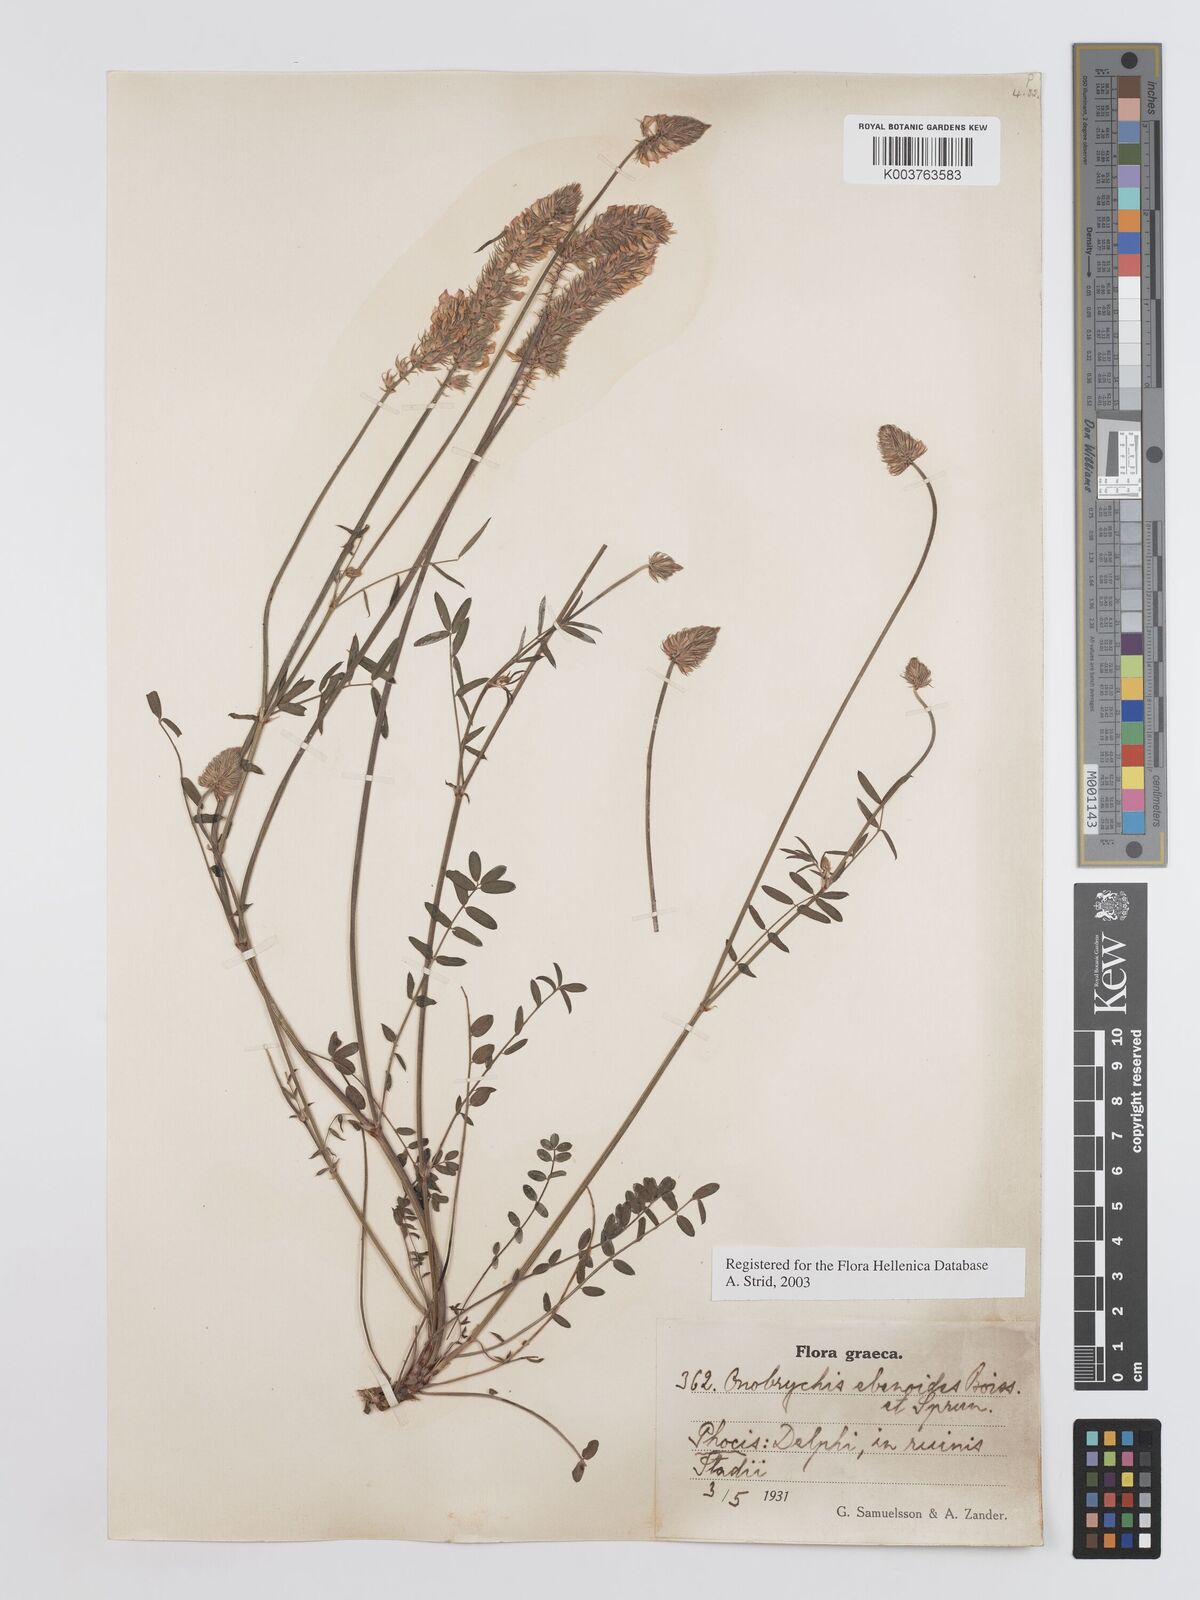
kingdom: Plantae
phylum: Tracheophyta
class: Magnoliopsida
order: Fabales
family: Fabaceae
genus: Onobrychis
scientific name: Onobrychis ebenoides
